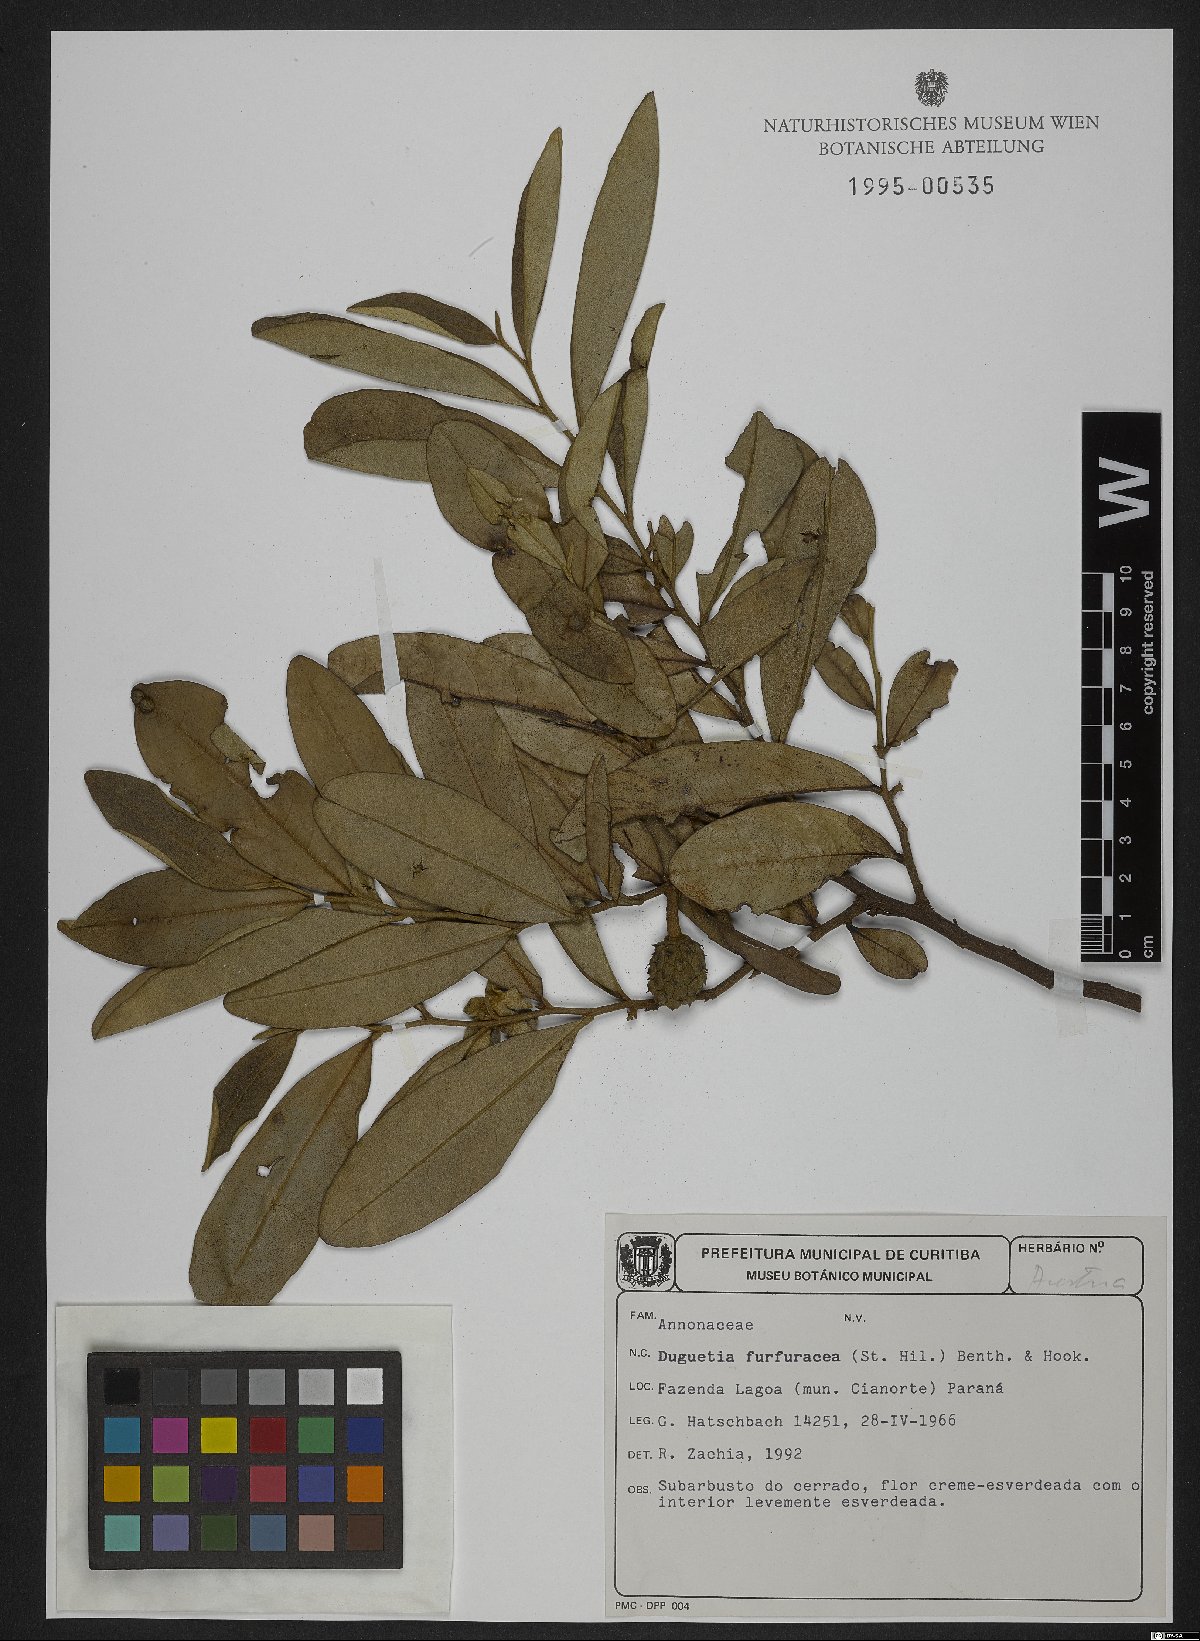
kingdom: Plantae
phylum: Tracheophyta
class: Magnoliopsida
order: Magnoliales
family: Annonaceae
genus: Duguetia
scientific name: Duguetia furfuracea
